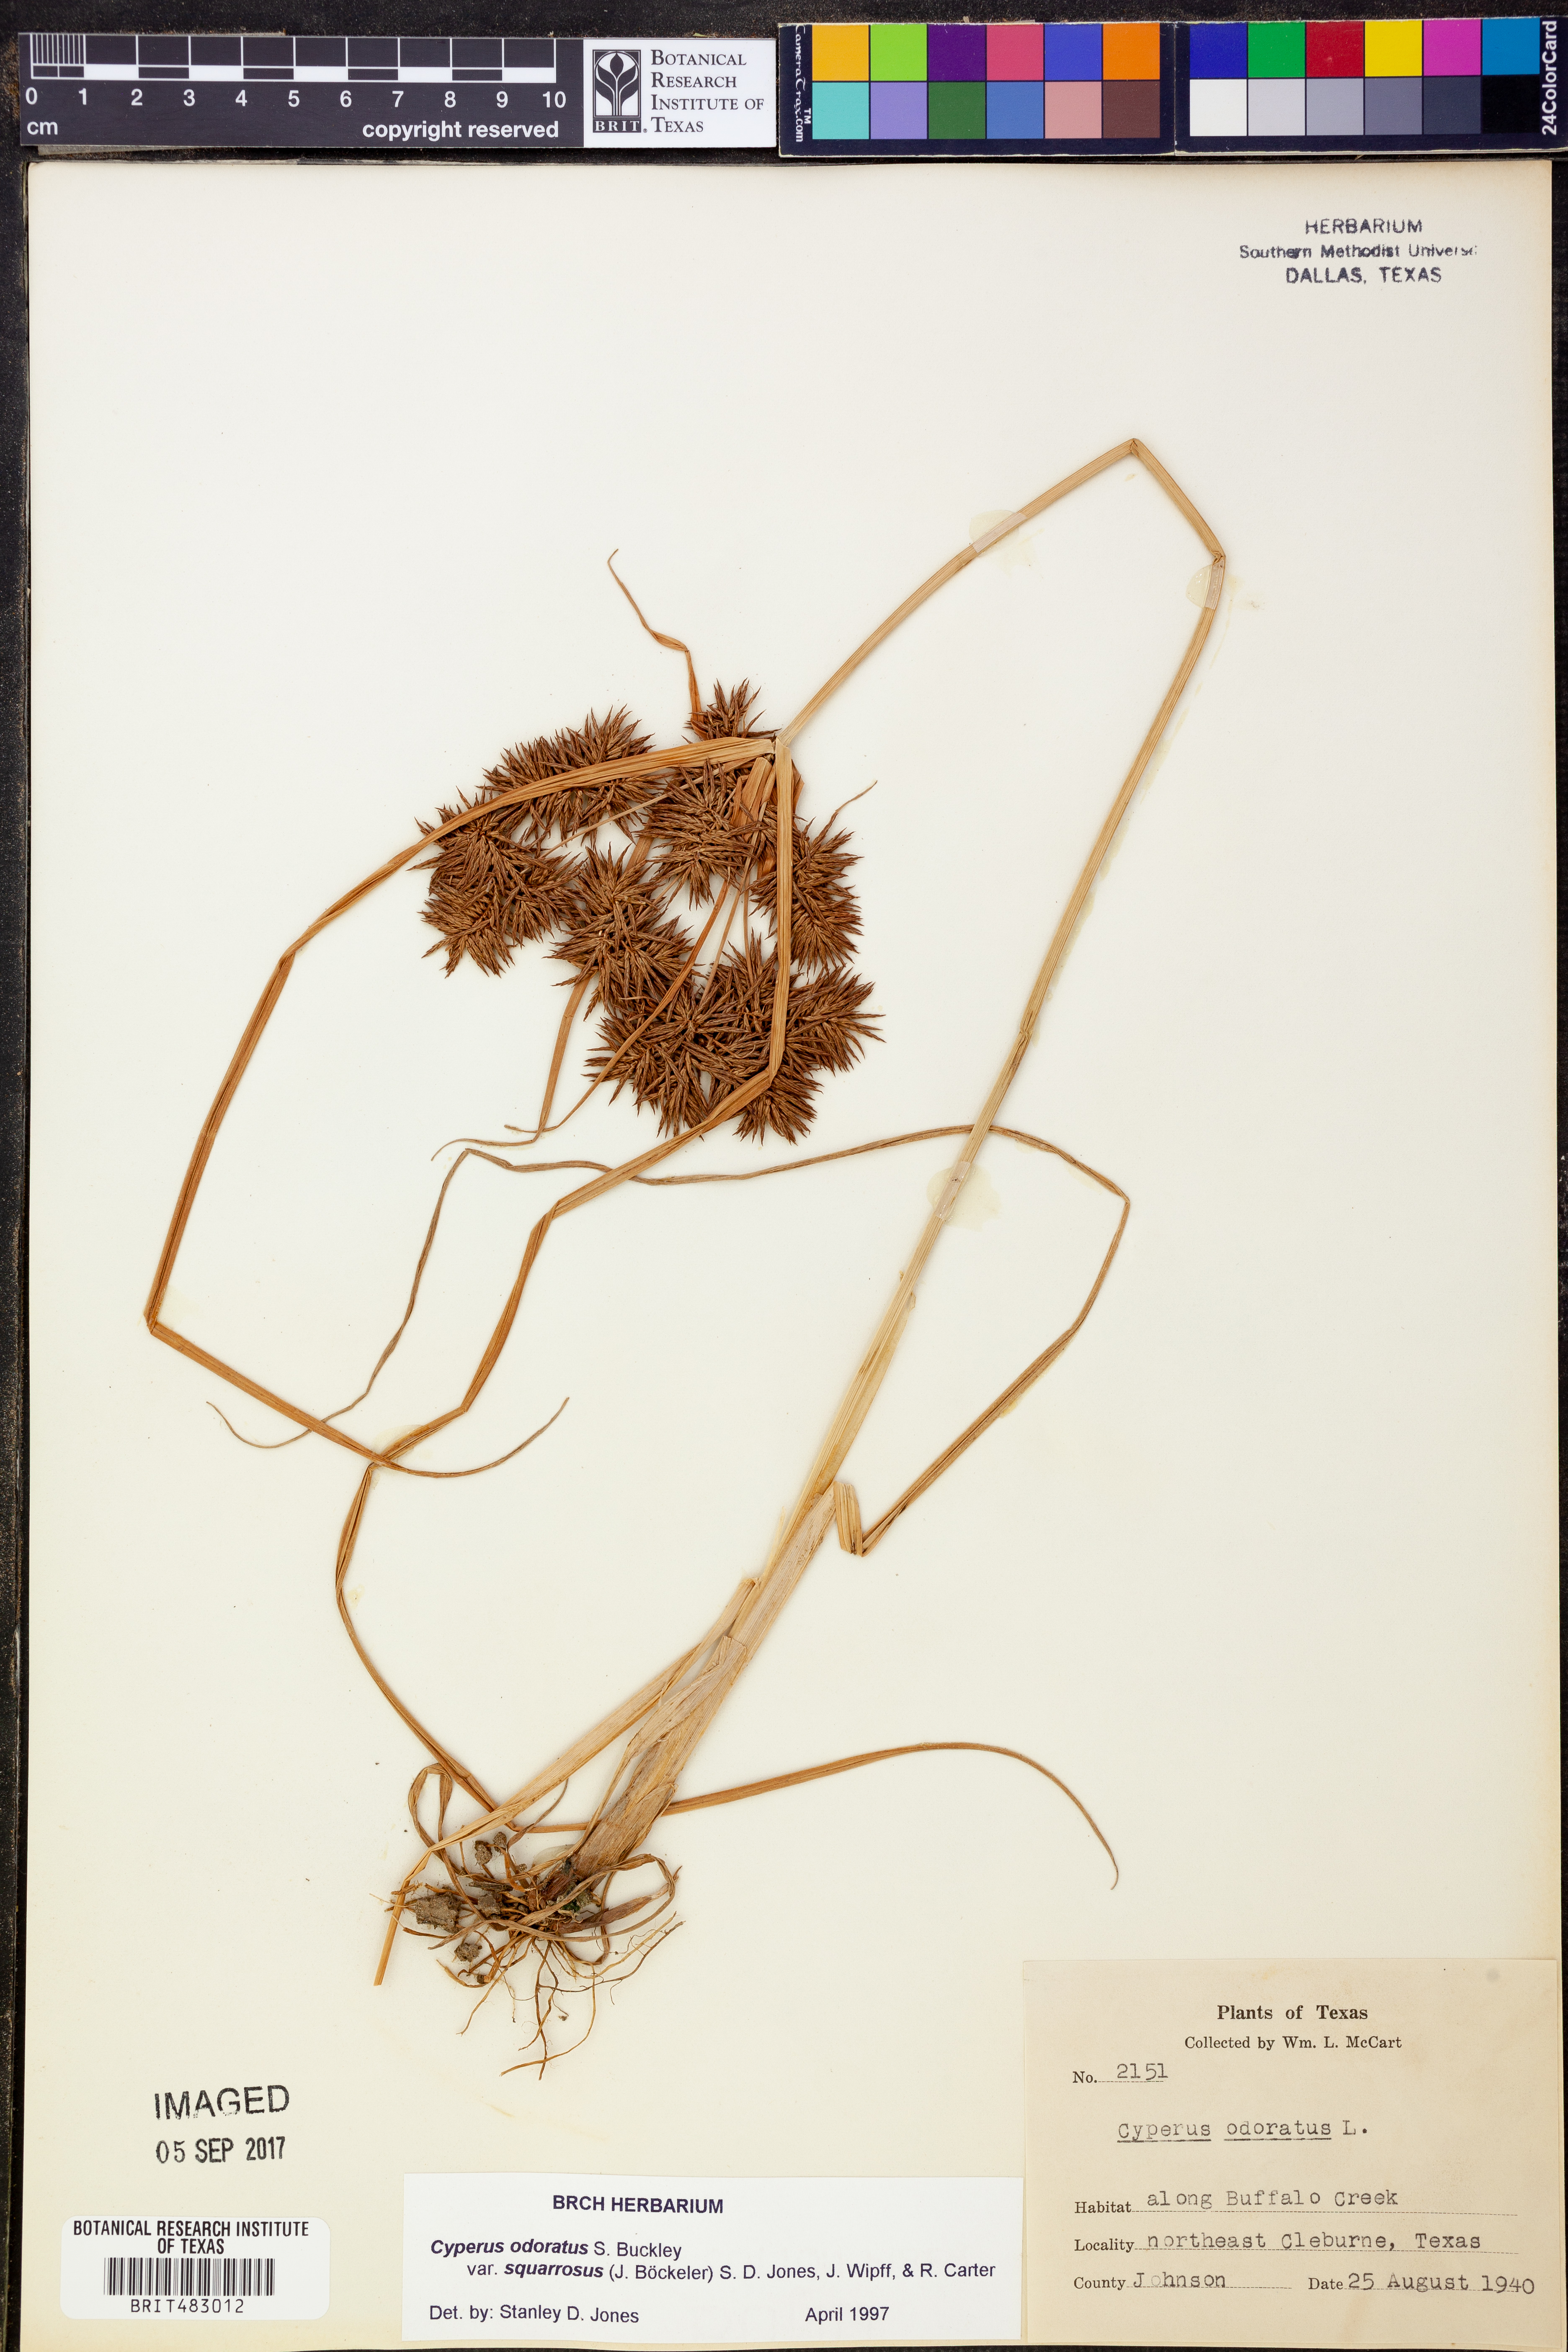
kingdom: Plantae
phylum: Tracheophyta
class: Liliopsida
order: Poales
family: Cyperaceae
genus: Cyperus
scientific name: Cyperus odoratus
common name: Fragrant flatsedge
